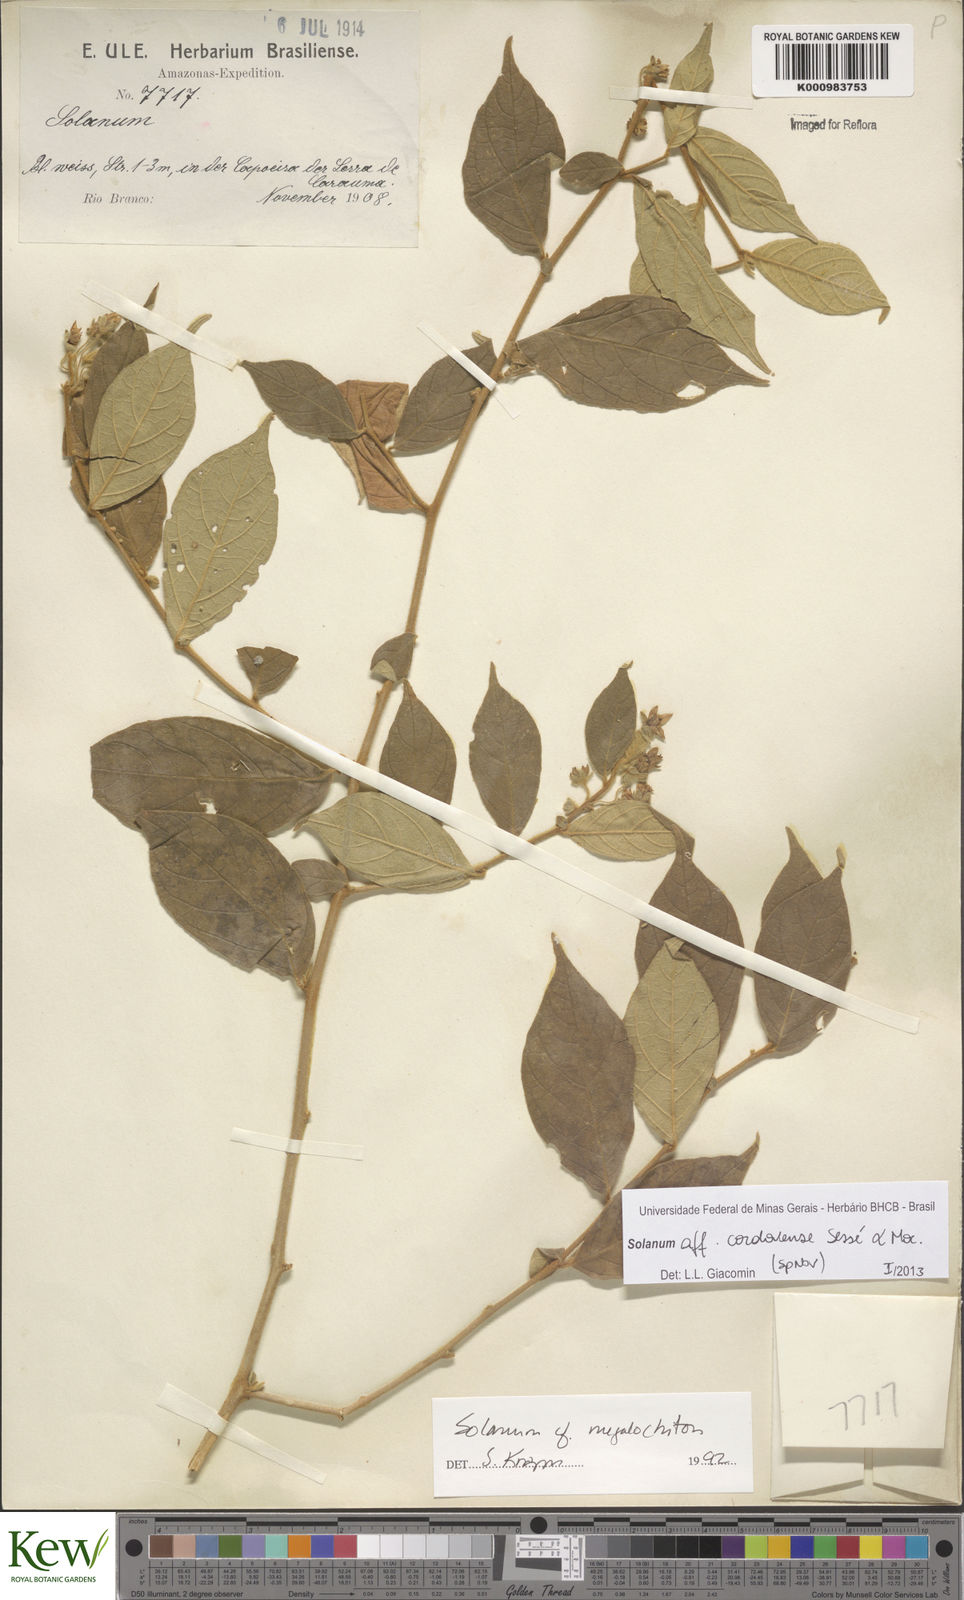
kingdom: Plantae
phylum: Tracheophyta
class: Magnoliopsida
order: Solanales
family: Solanaceae
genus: Solanum
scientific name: Solanum
